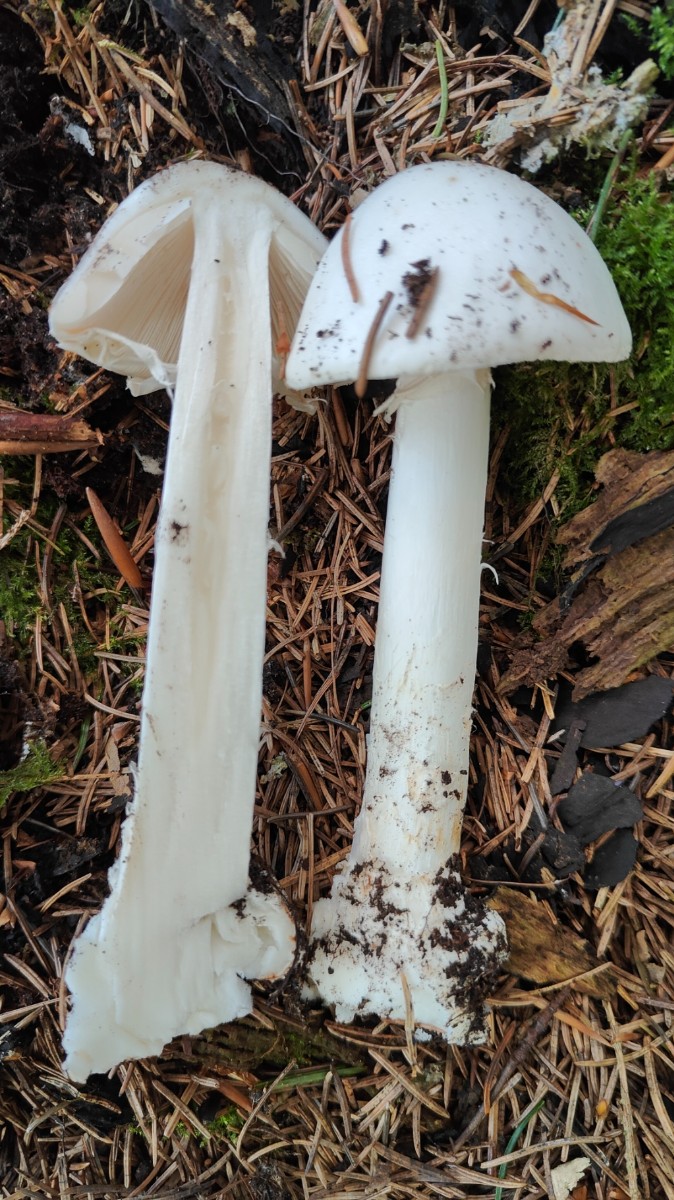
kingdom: Fungi
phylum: Basidiomycota
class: Agaricomycetes
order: Agaricales
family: Amanitaceae
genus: Amanita
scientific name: Amanita virosa
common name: snehvid fluesvamp
